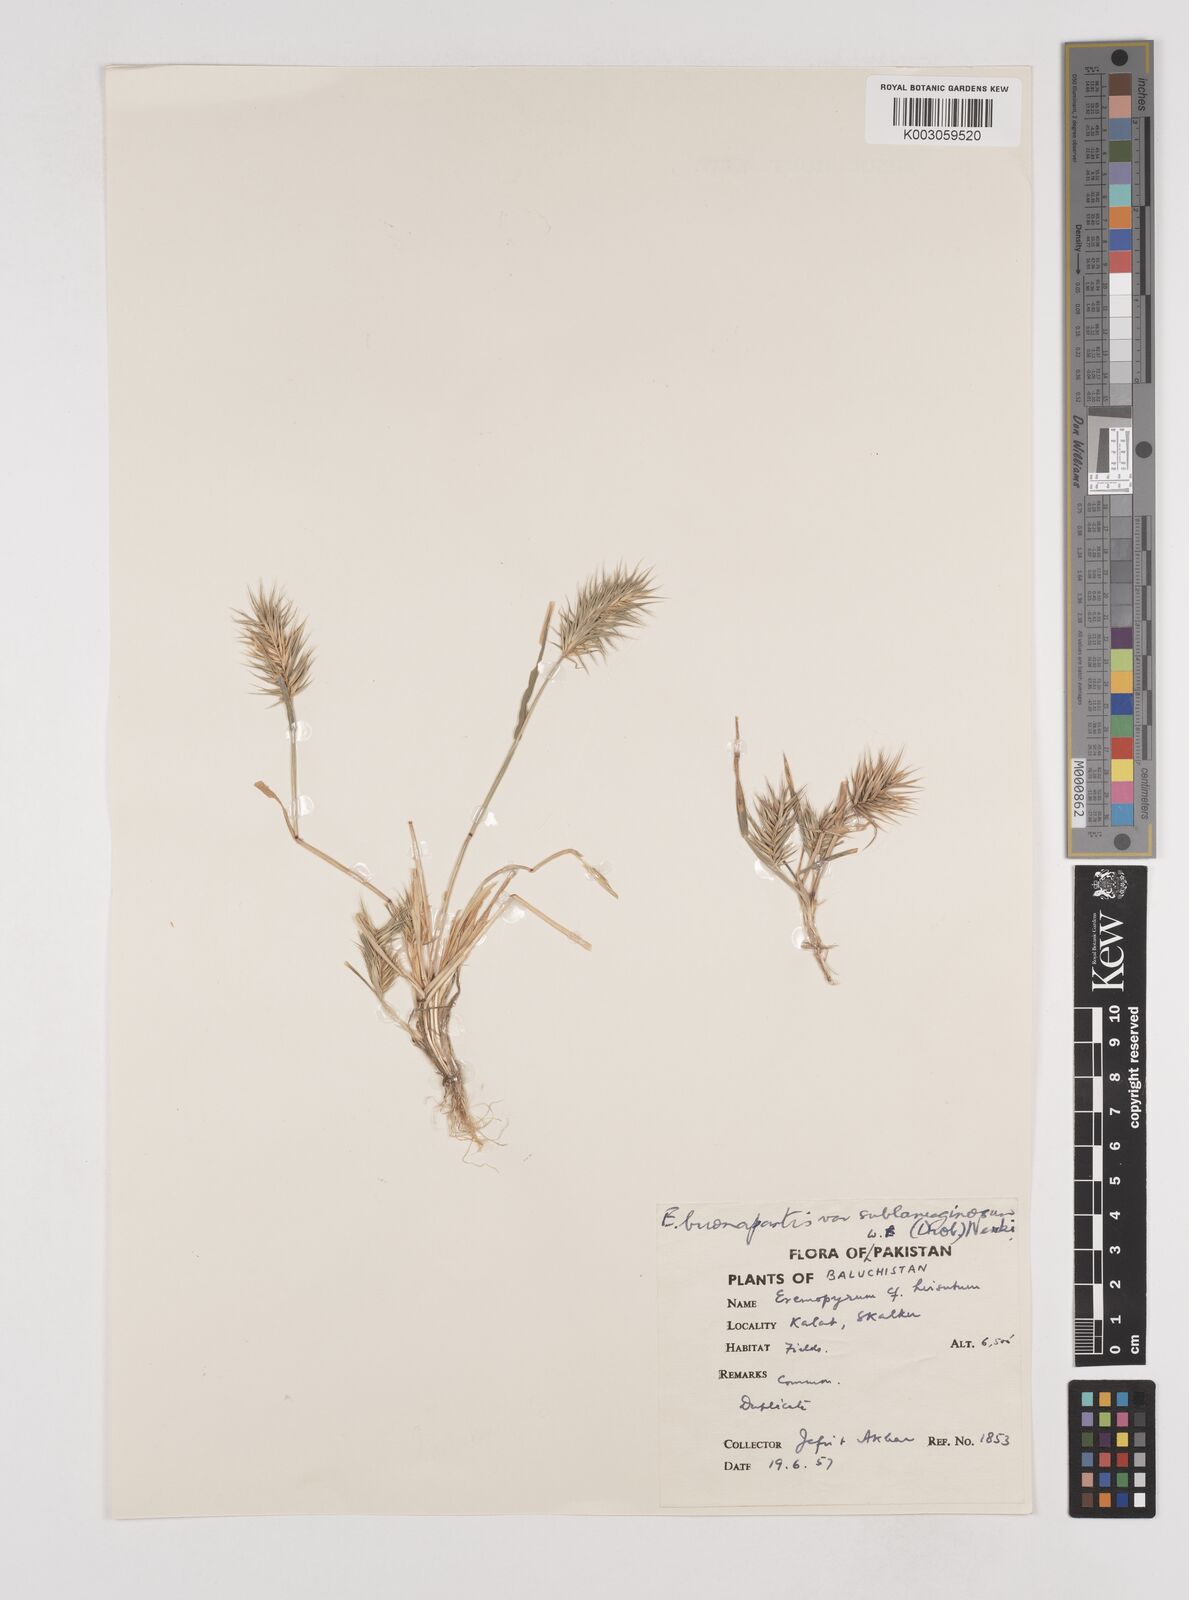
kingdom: Plantae
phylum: Tracheophyta
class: Liliopsida
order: Poales
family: Poaceae
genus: Eremopyrum
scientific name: Eremopyrum bonaepartis
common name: Tapertip false wheatgrass
